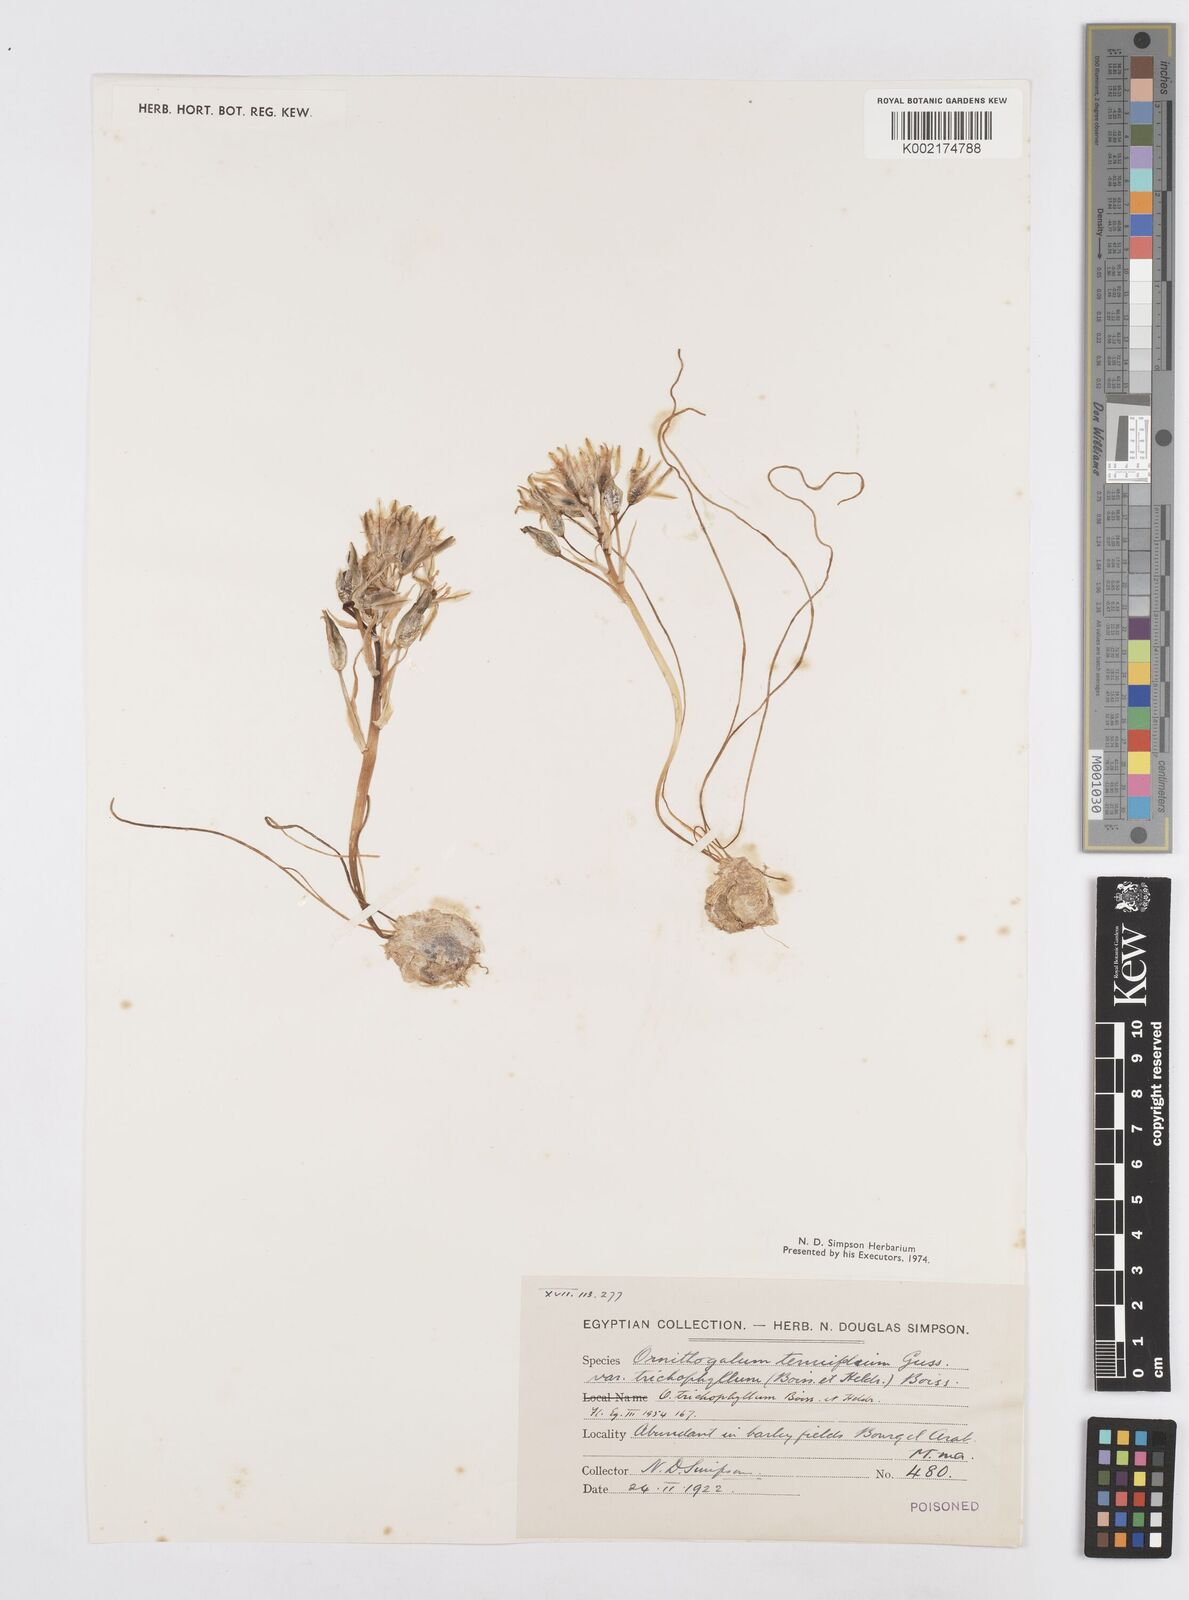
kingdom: Plantae
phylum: Tracheophyta
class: Liliopsida
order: Asparagales
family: Asparagaceae
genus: Ornithogalum
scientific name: Ornithogalum trichophyllum
